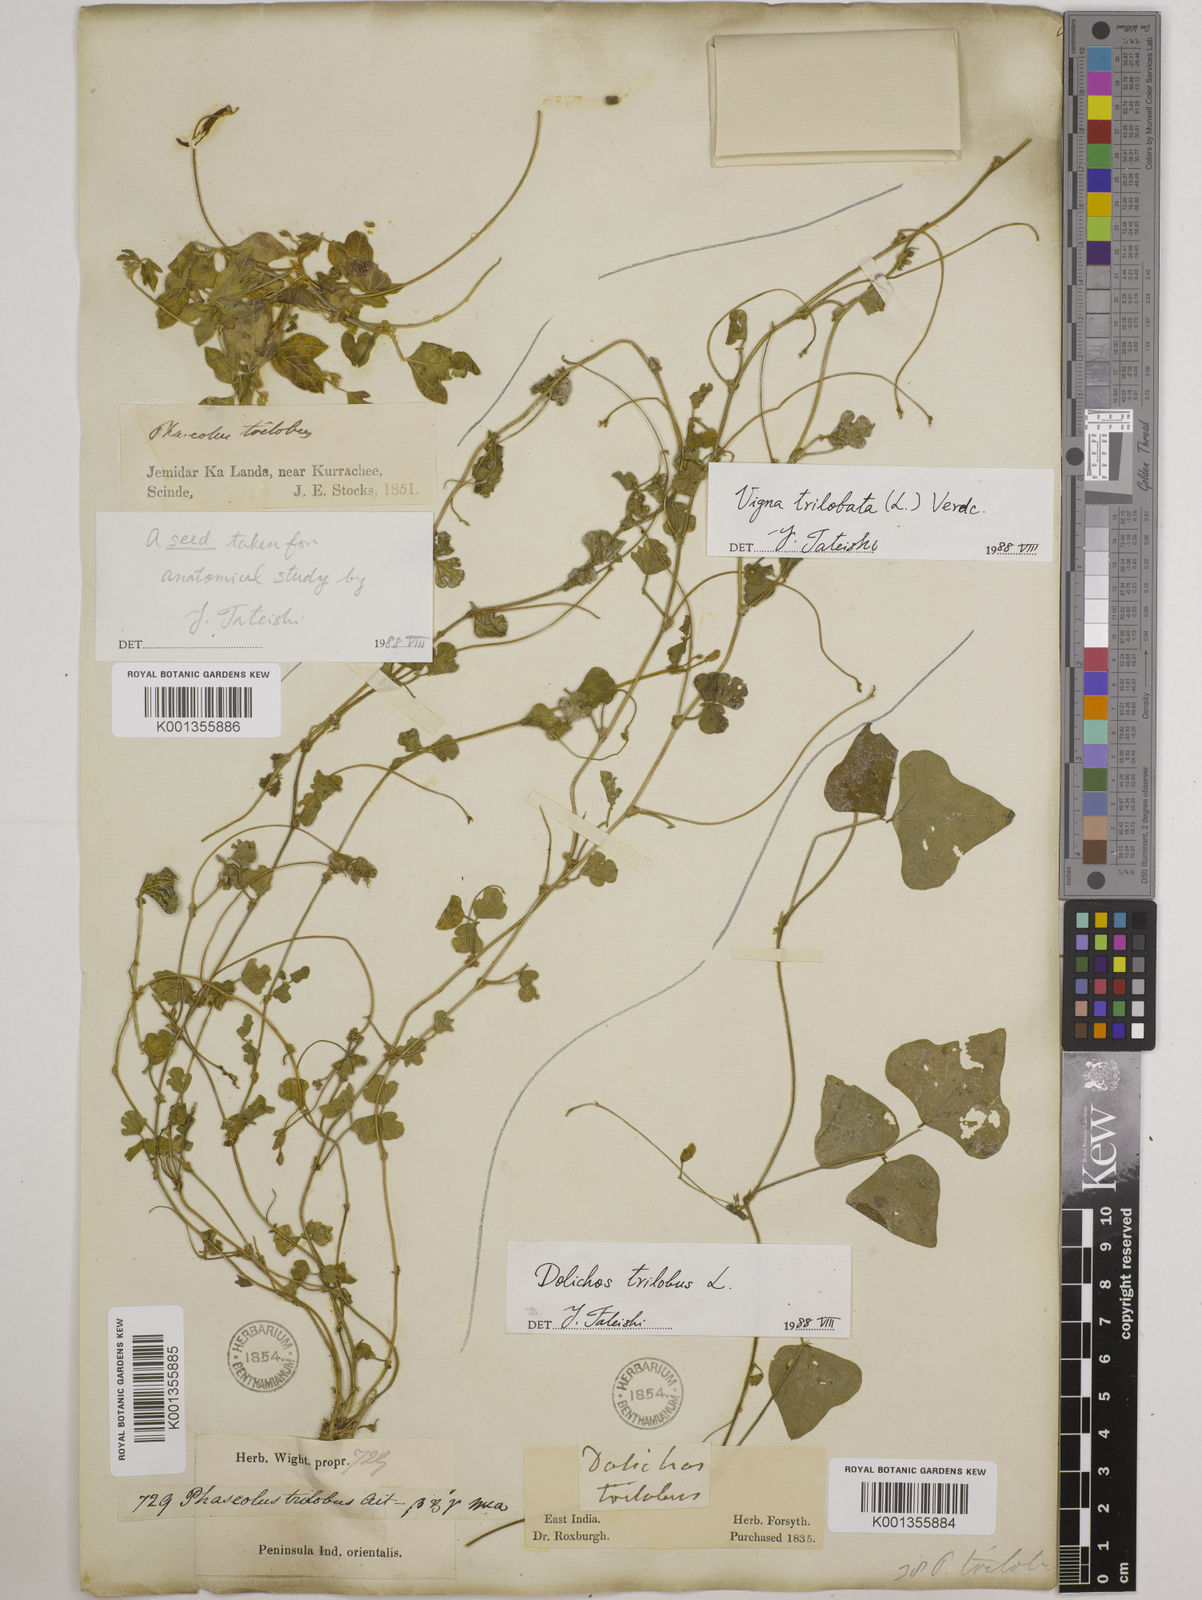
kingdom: Plantae
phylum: Tracheophyta
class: Magnoliopsida
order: Fabales
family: Fabaceae
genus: Vigna
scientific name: Vigna trilobata
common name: Jungli-bean
